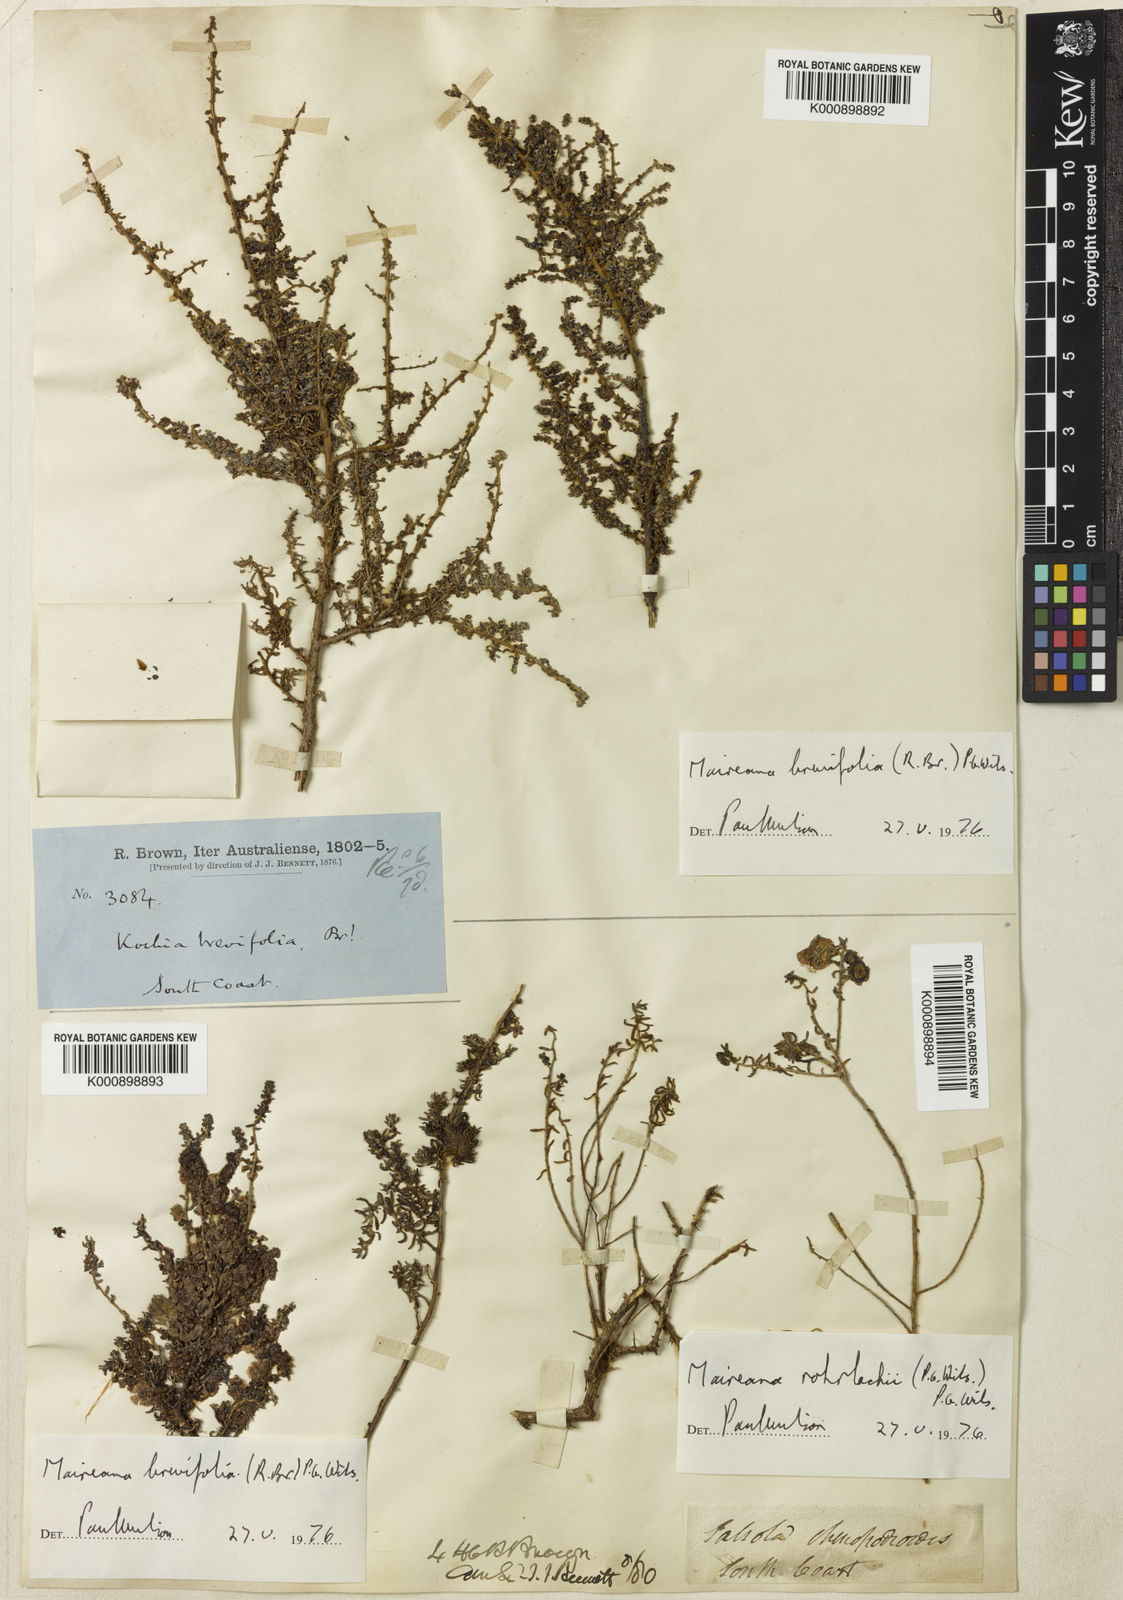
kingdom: Plantae
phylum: Tracheophyta
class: Magnoliopsida
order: Caryophyllales
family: Amaranthaceae
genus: Maireana
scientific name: Maireana brevifolia
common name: Eastern cottonbush
